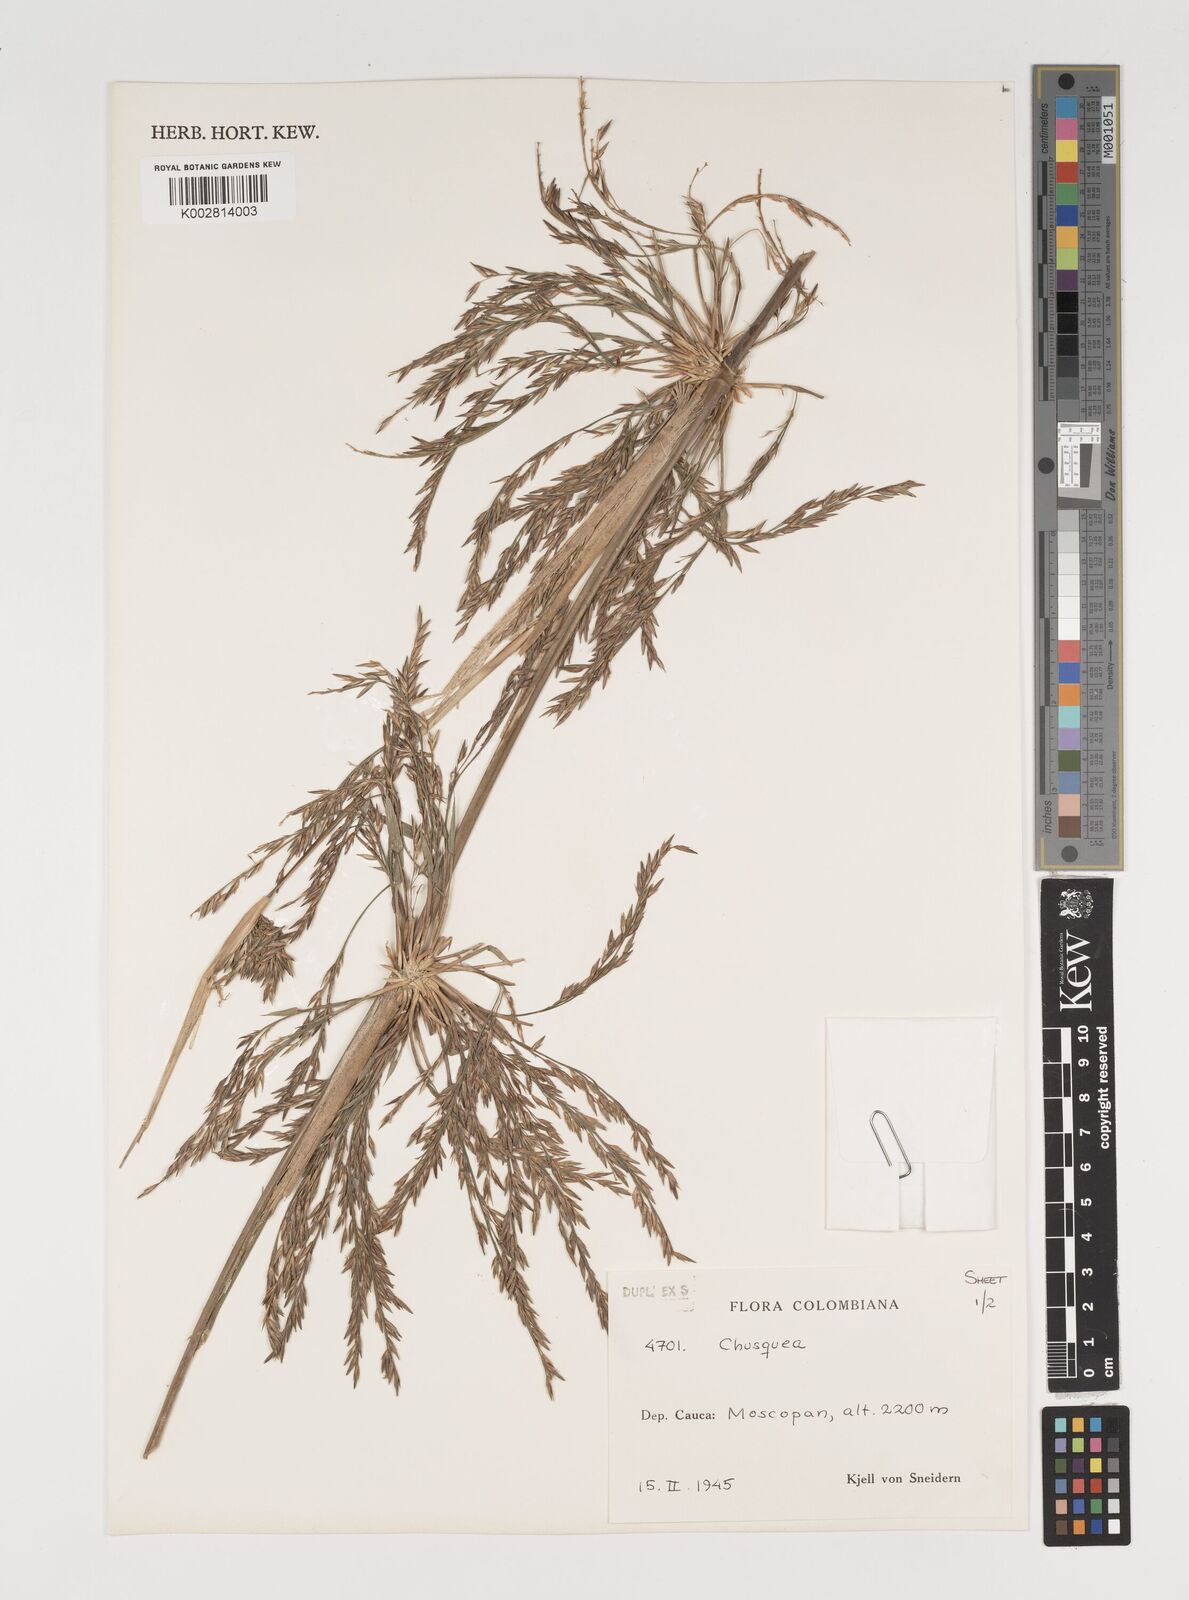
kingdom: Plantae
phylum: Tracheophyta
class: Liliopsida
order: Poales
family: Poaceae
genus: Chusquea
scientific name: Chusquea
